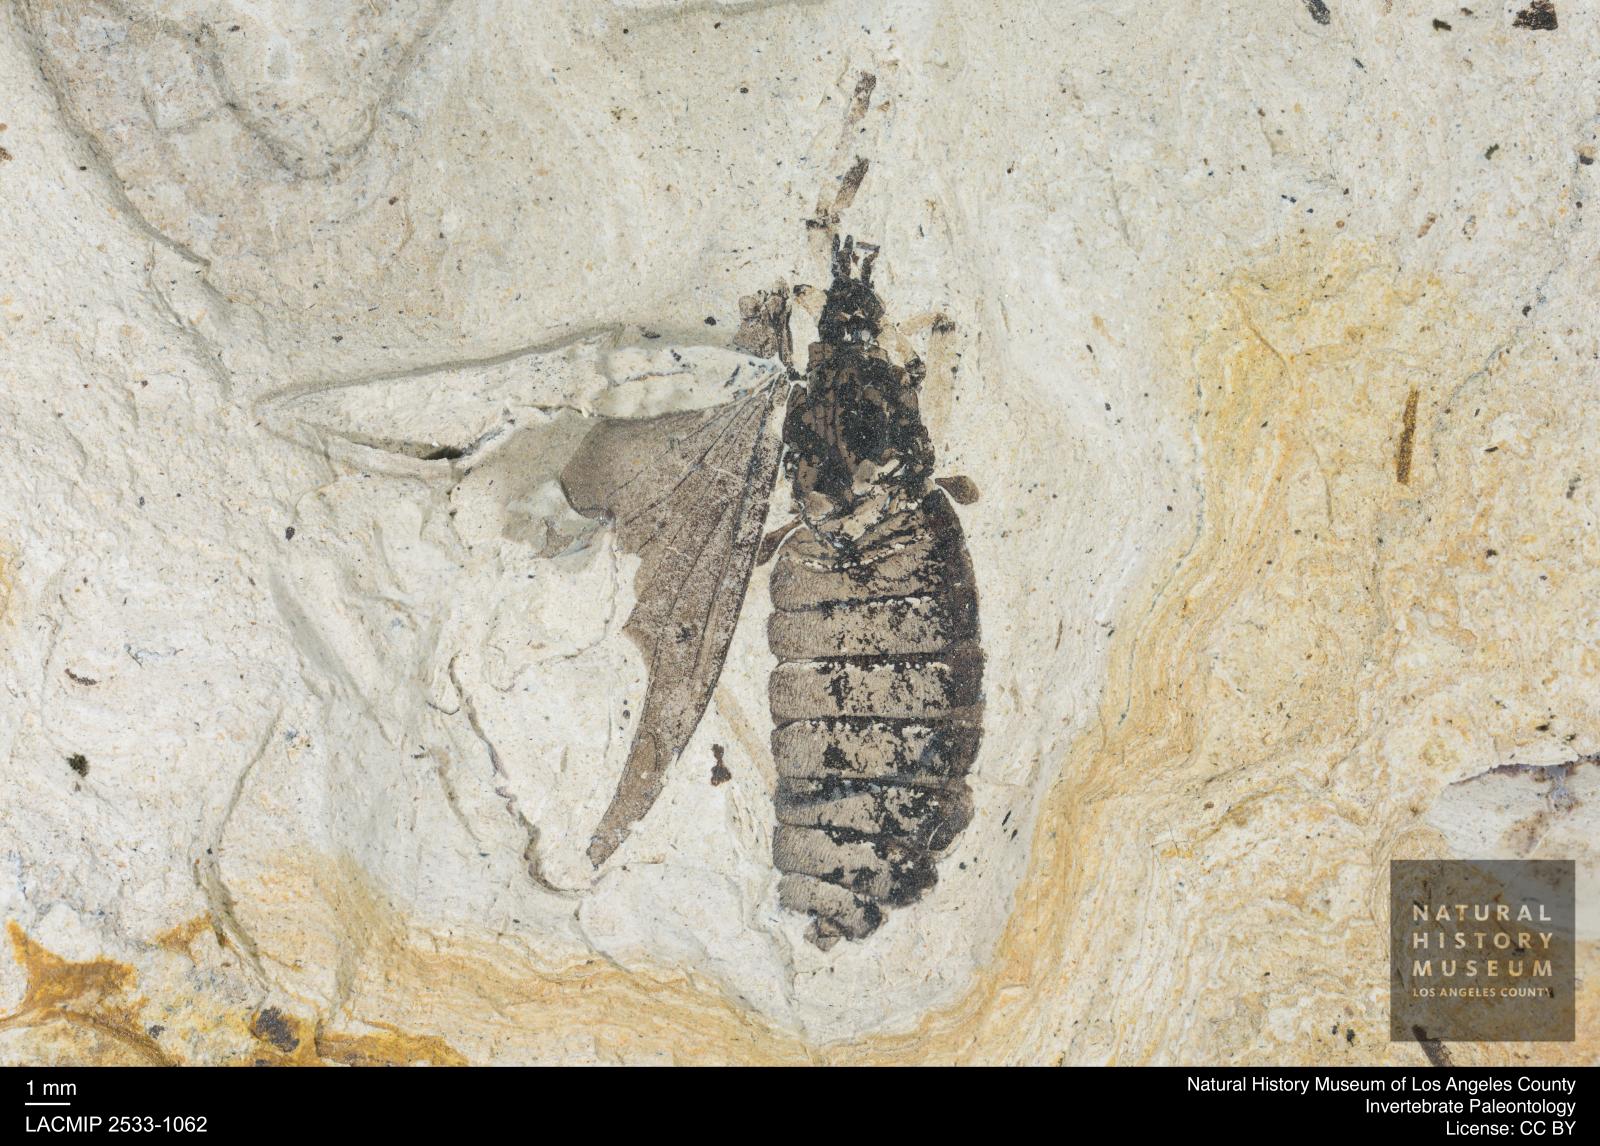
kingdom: Animalia
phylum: Arthropoda
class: Insecta
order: Diptera
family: Bibionidae
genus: Plecia
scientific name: Plecia rhenana
